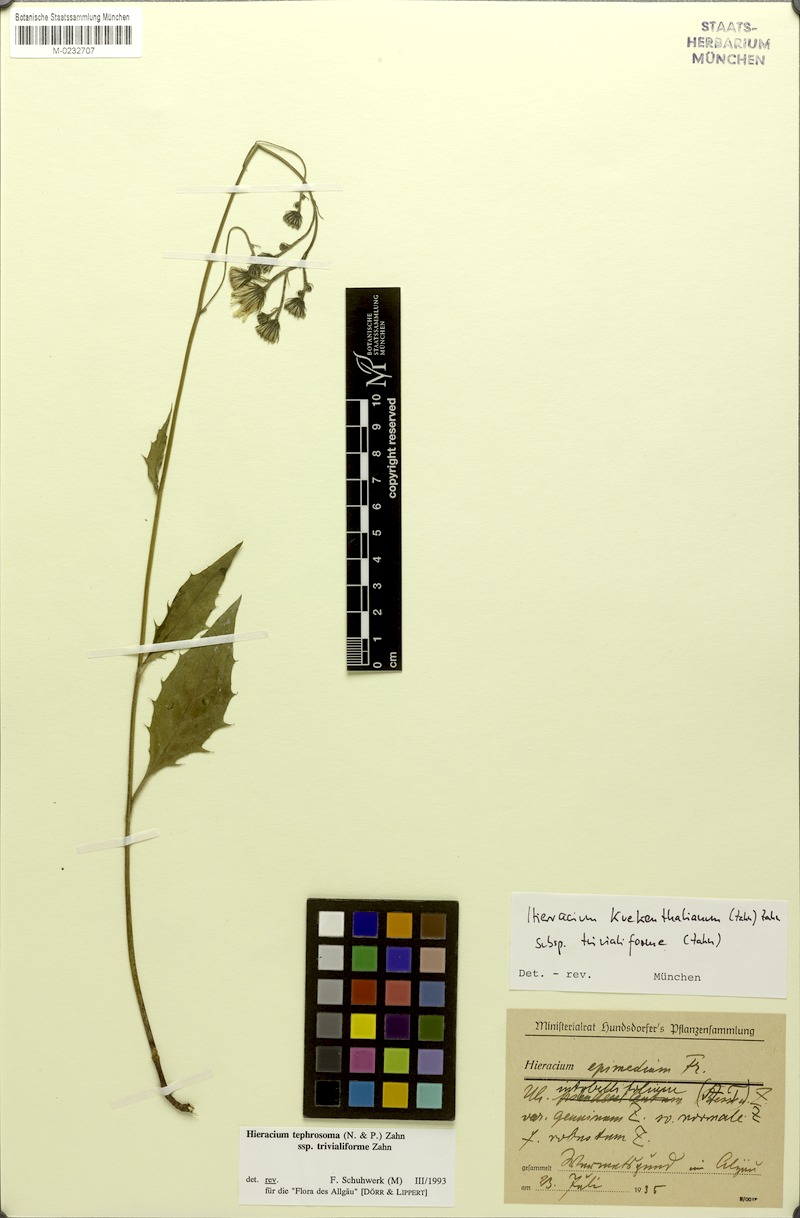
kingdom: Plantae
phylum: Tracheophyta
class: Magnoliopsida
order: Asterales
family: Asteraceae
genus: Hieracium
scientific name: Hieracium kuekenthalianum
